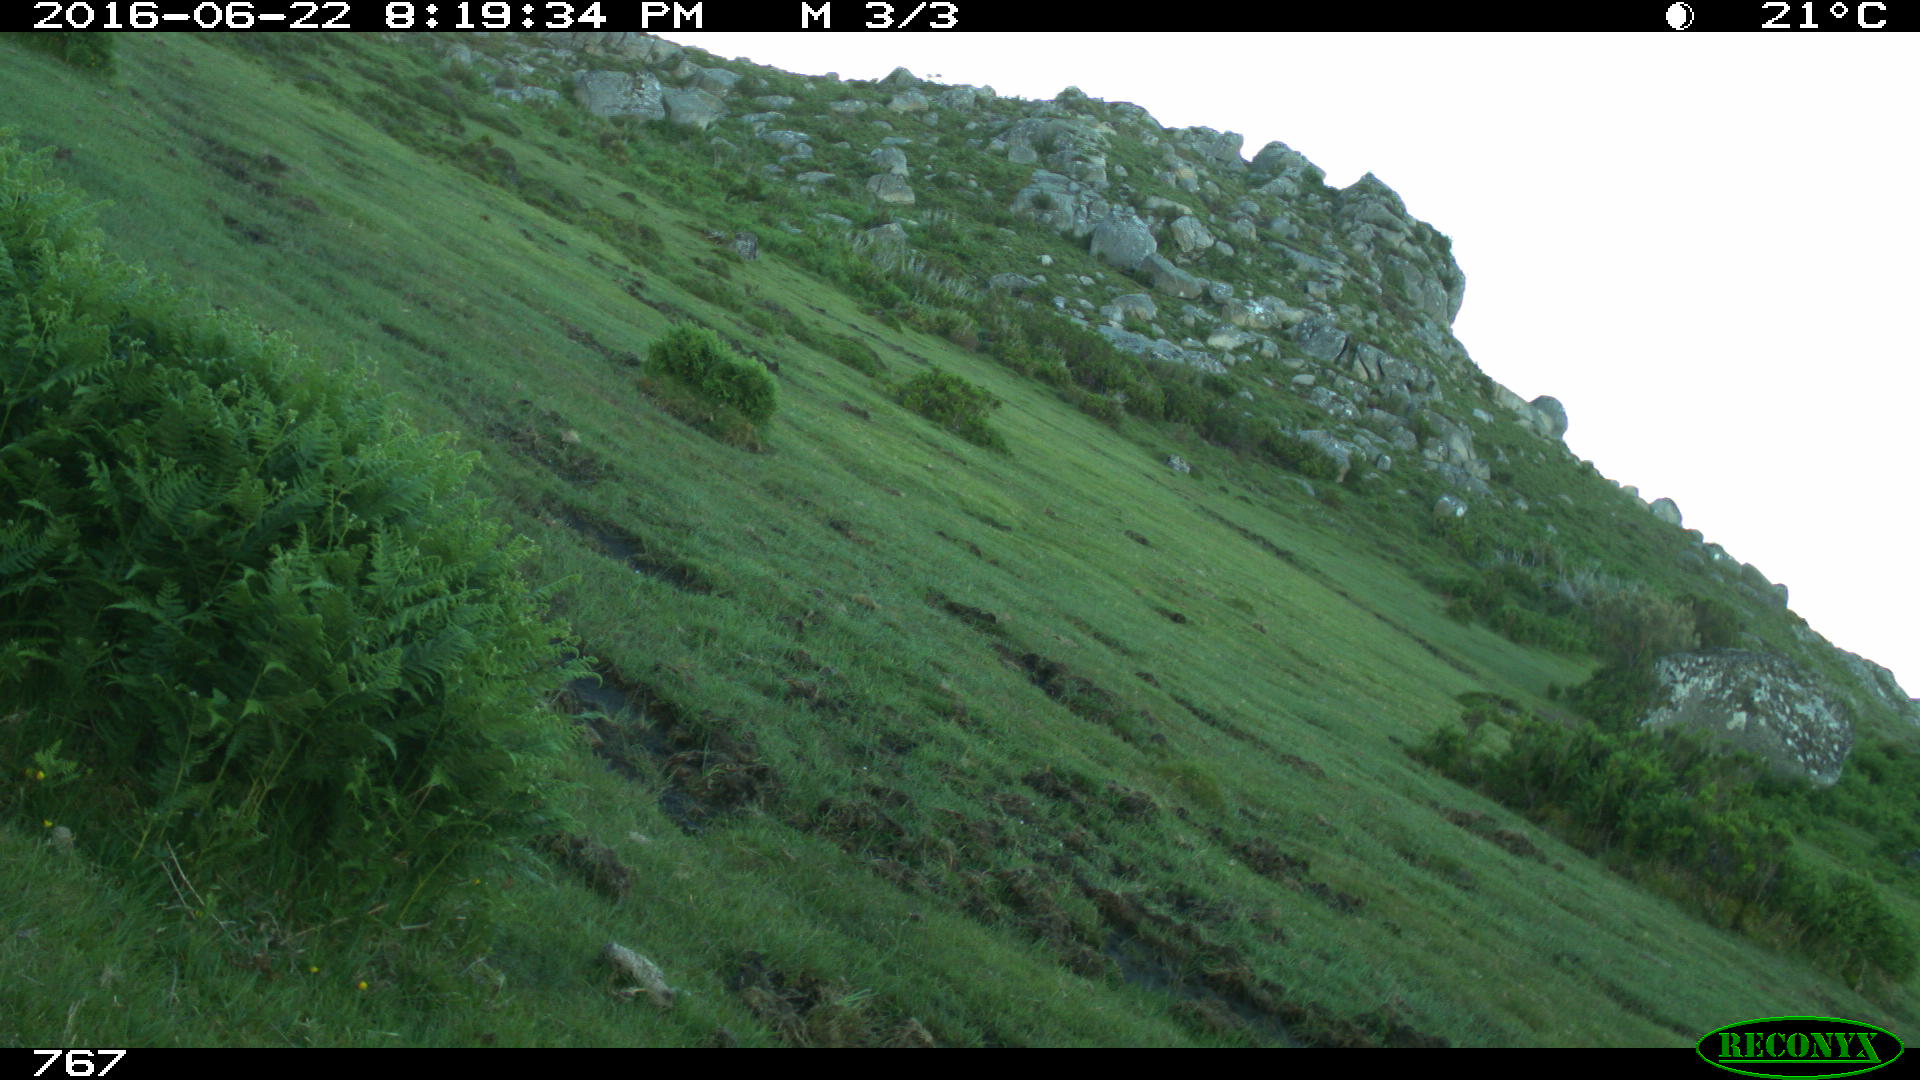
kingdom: Animalia
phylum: Chordata
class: Mammalia
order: Artiodactyla
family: Bovidae
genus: Bos
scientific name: Bos taurus
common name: Domesticated cattle
